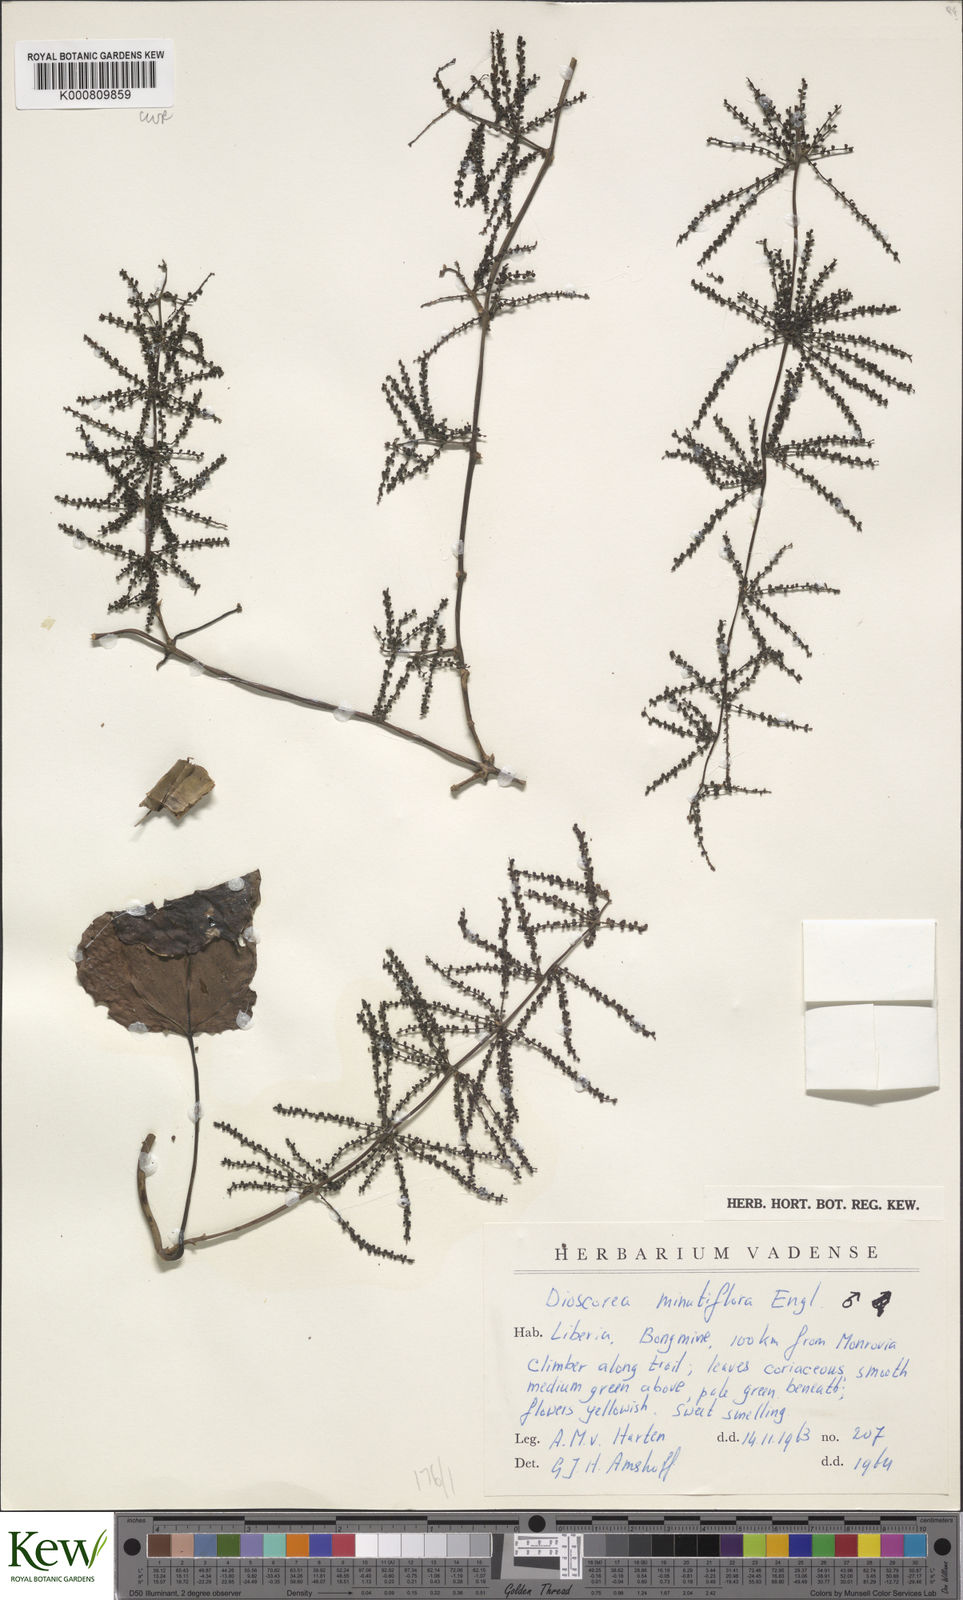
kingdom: Plantae
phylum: Tracheophyta
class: Liliopsida
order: Dioscoreales
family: Dioscoreaceae
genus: Dioscorea
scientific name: Dioscorea minutiflora
